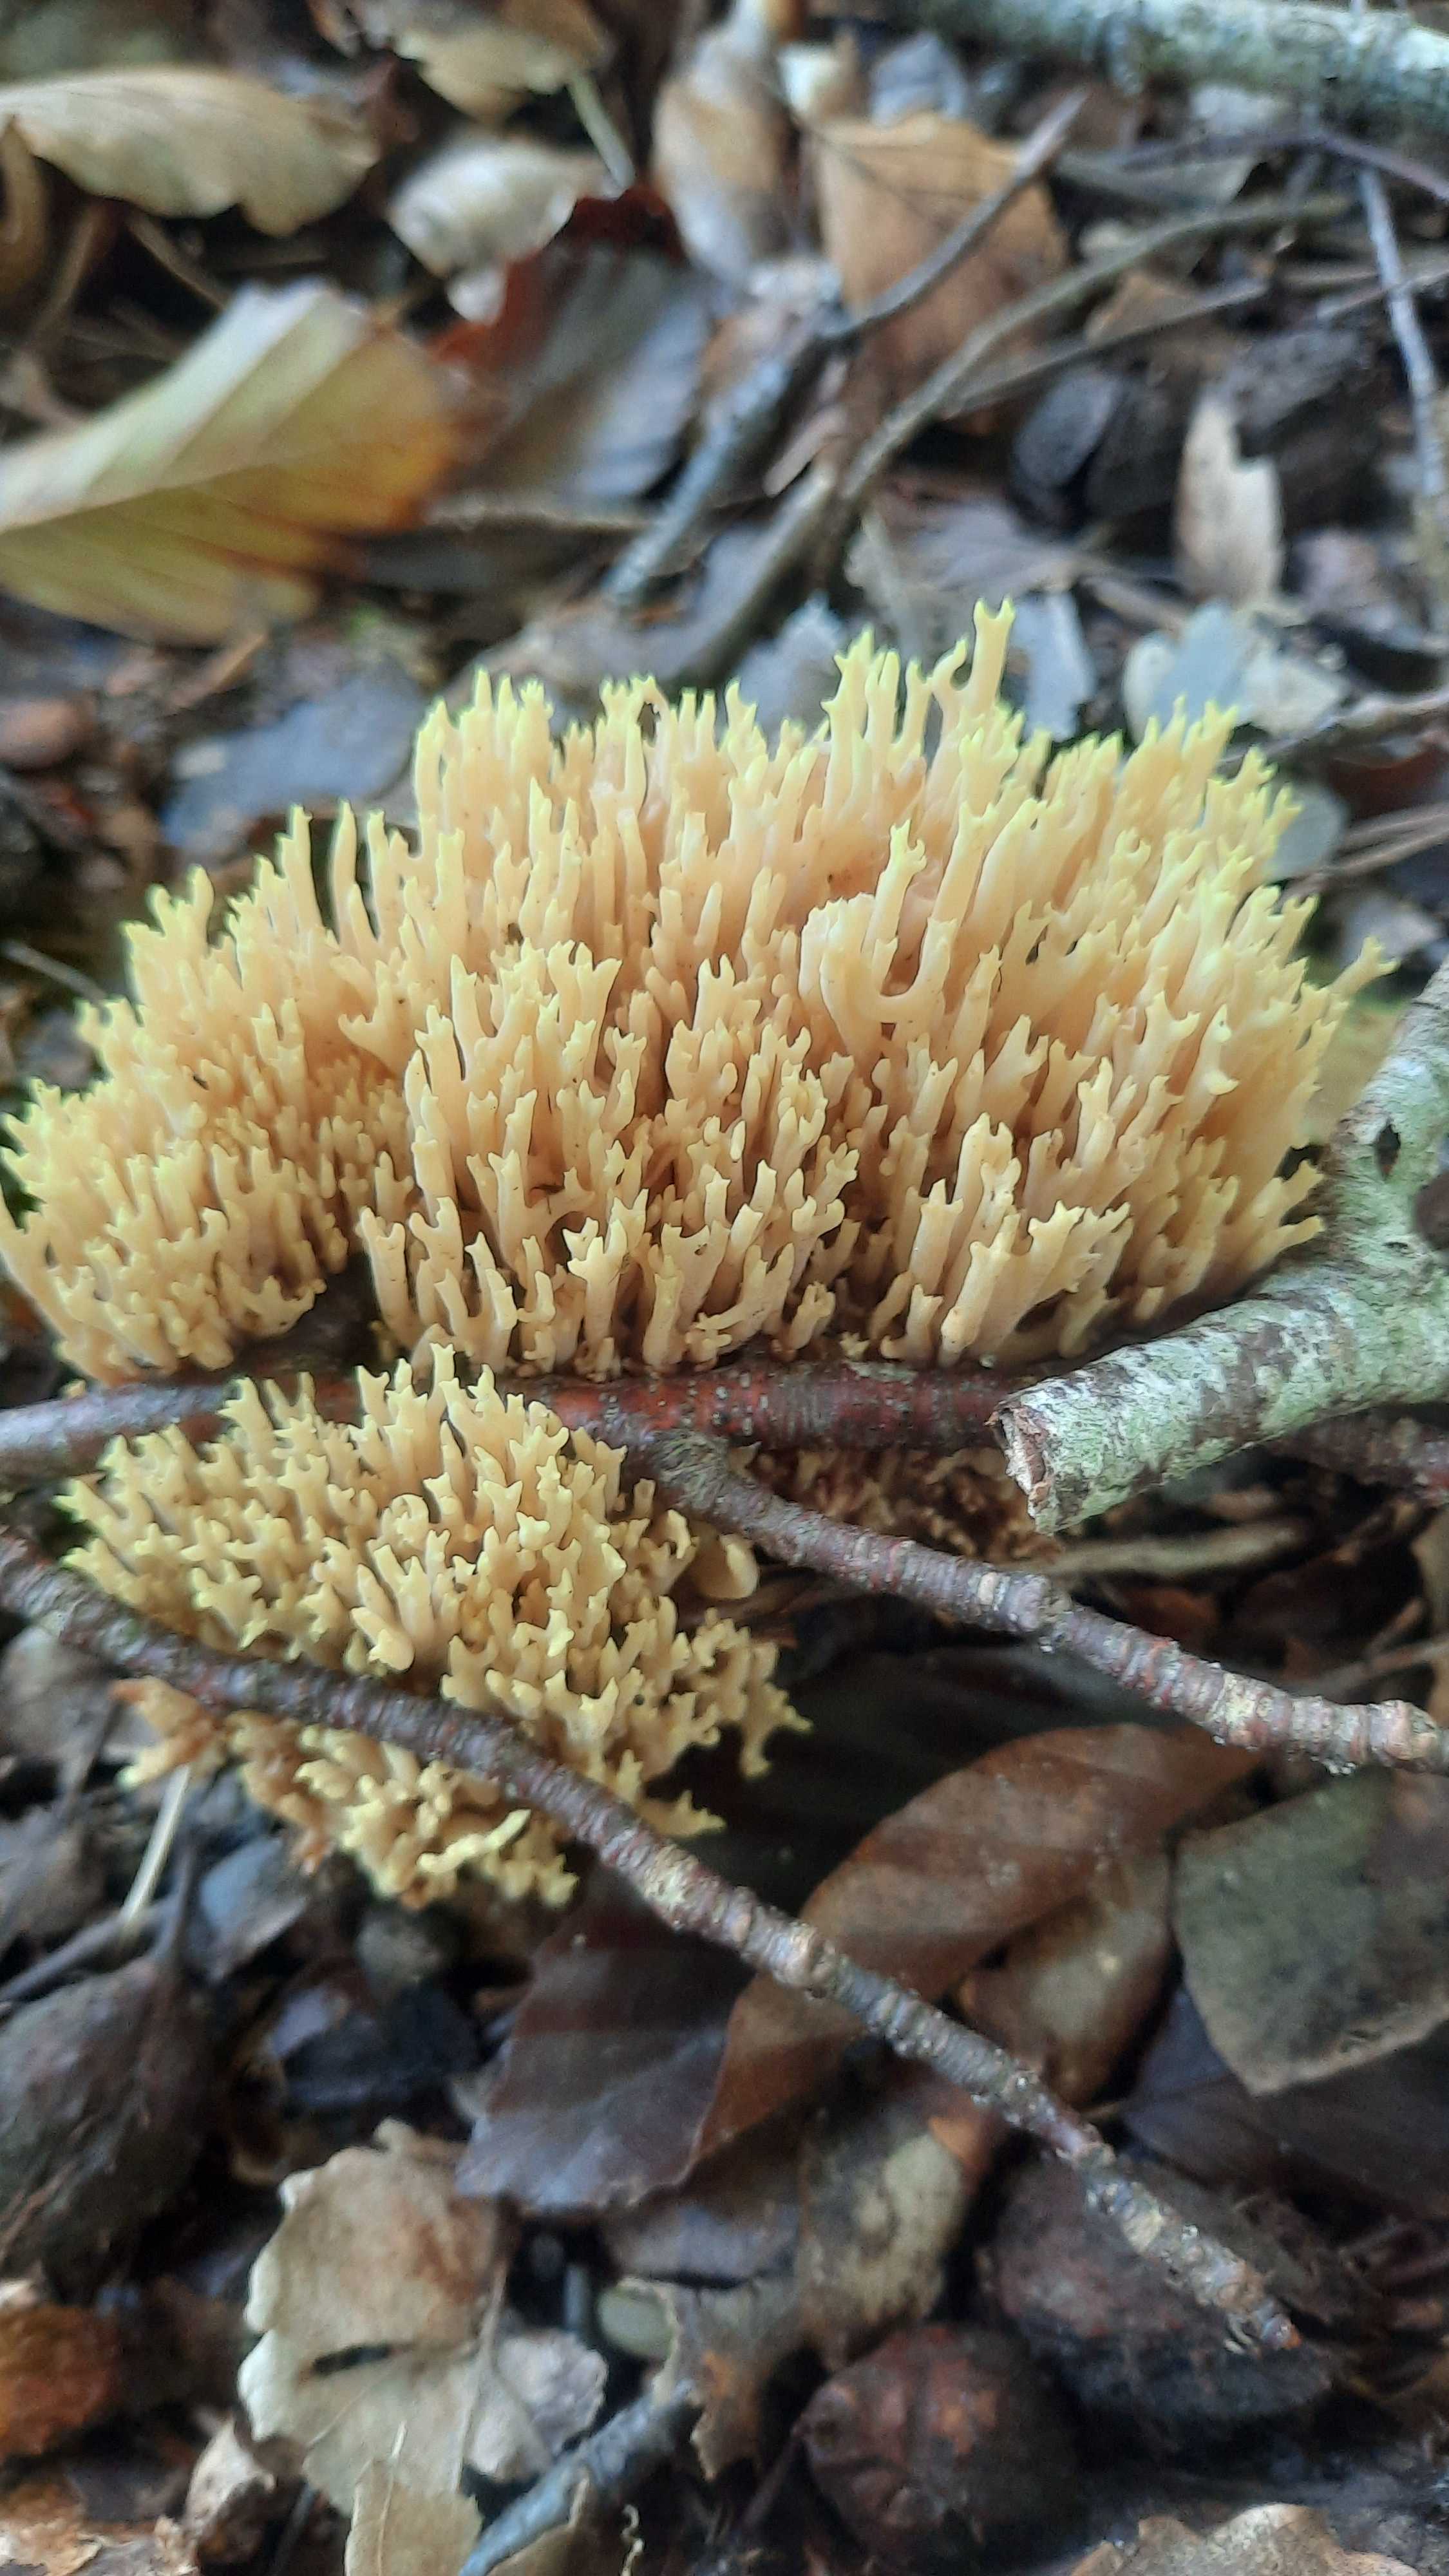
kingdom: Fungi
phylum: Basidiomycota
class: Agaricomycetes
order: Gomphales
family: Gomphaceae
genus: Ramaria
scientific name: Ramaria stricta
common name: rank koralsvamp
